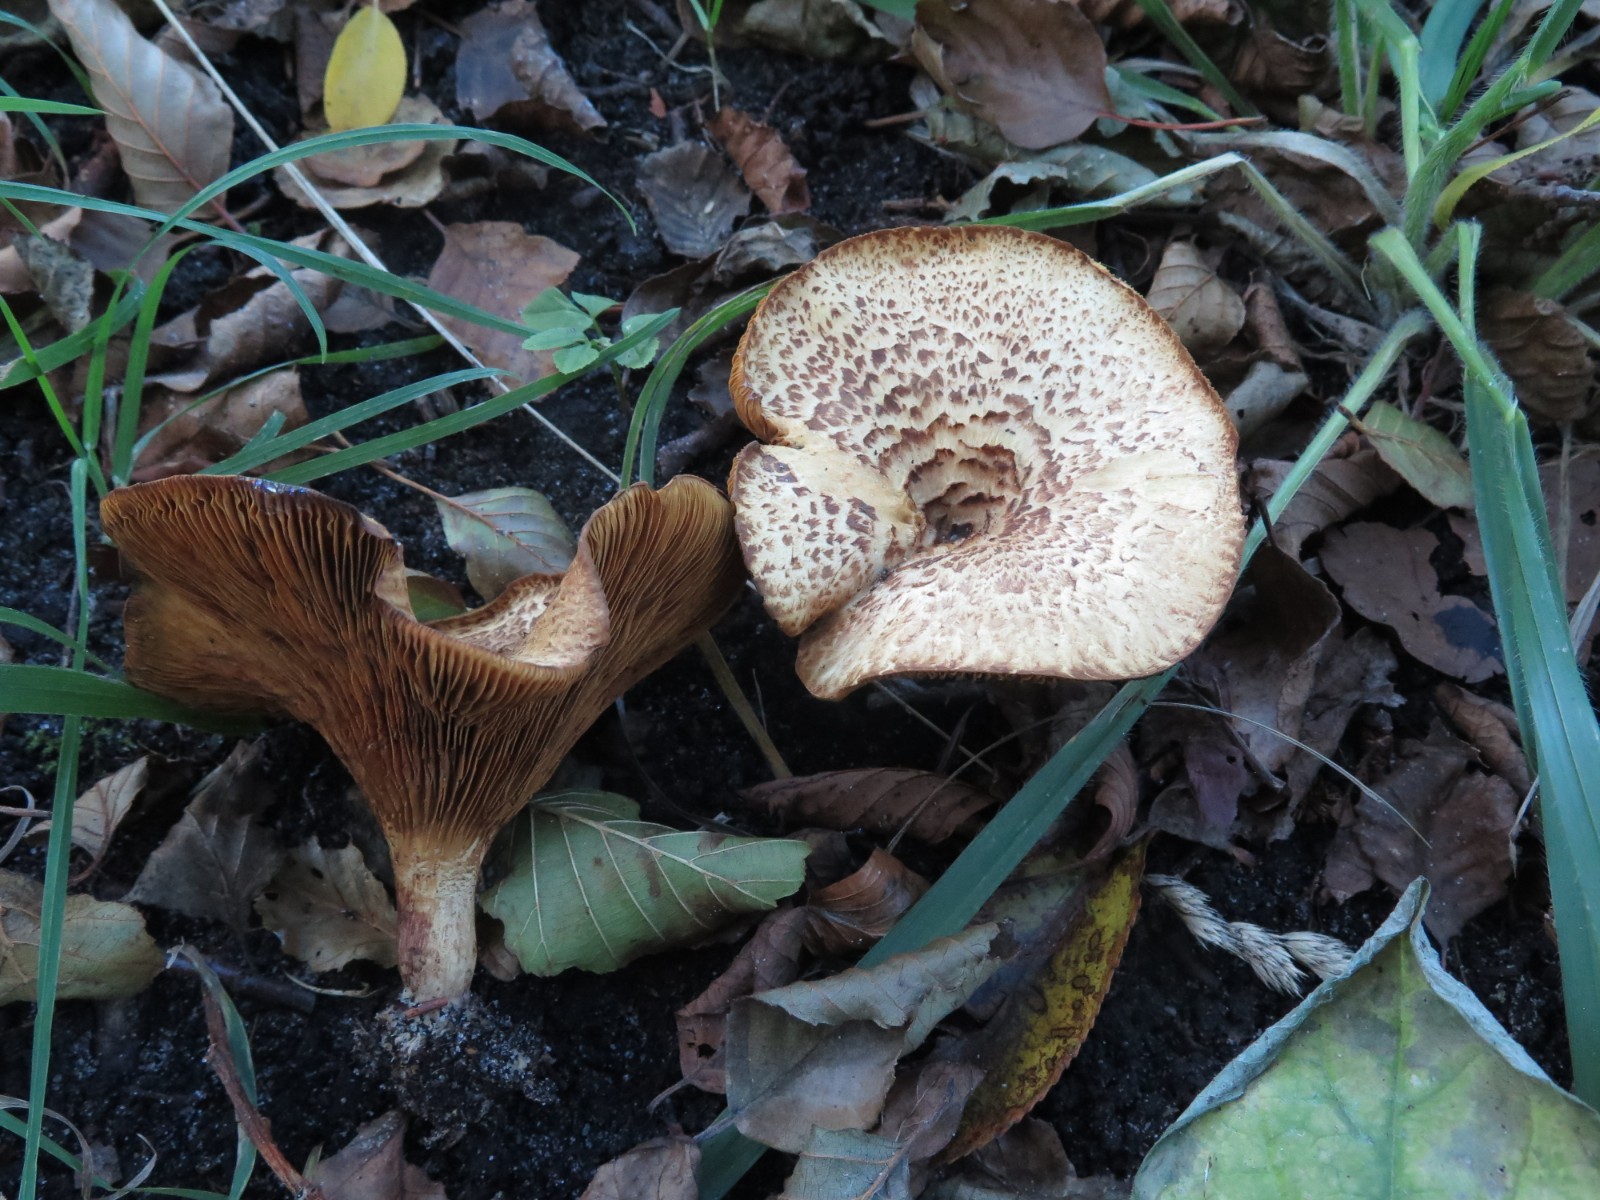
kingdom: Fungi
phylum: Basidiomycota
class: Agaricomycetes
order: Boletales
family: Paxillaceae
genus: Paxillus
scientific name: Paxillus rubicundulus
